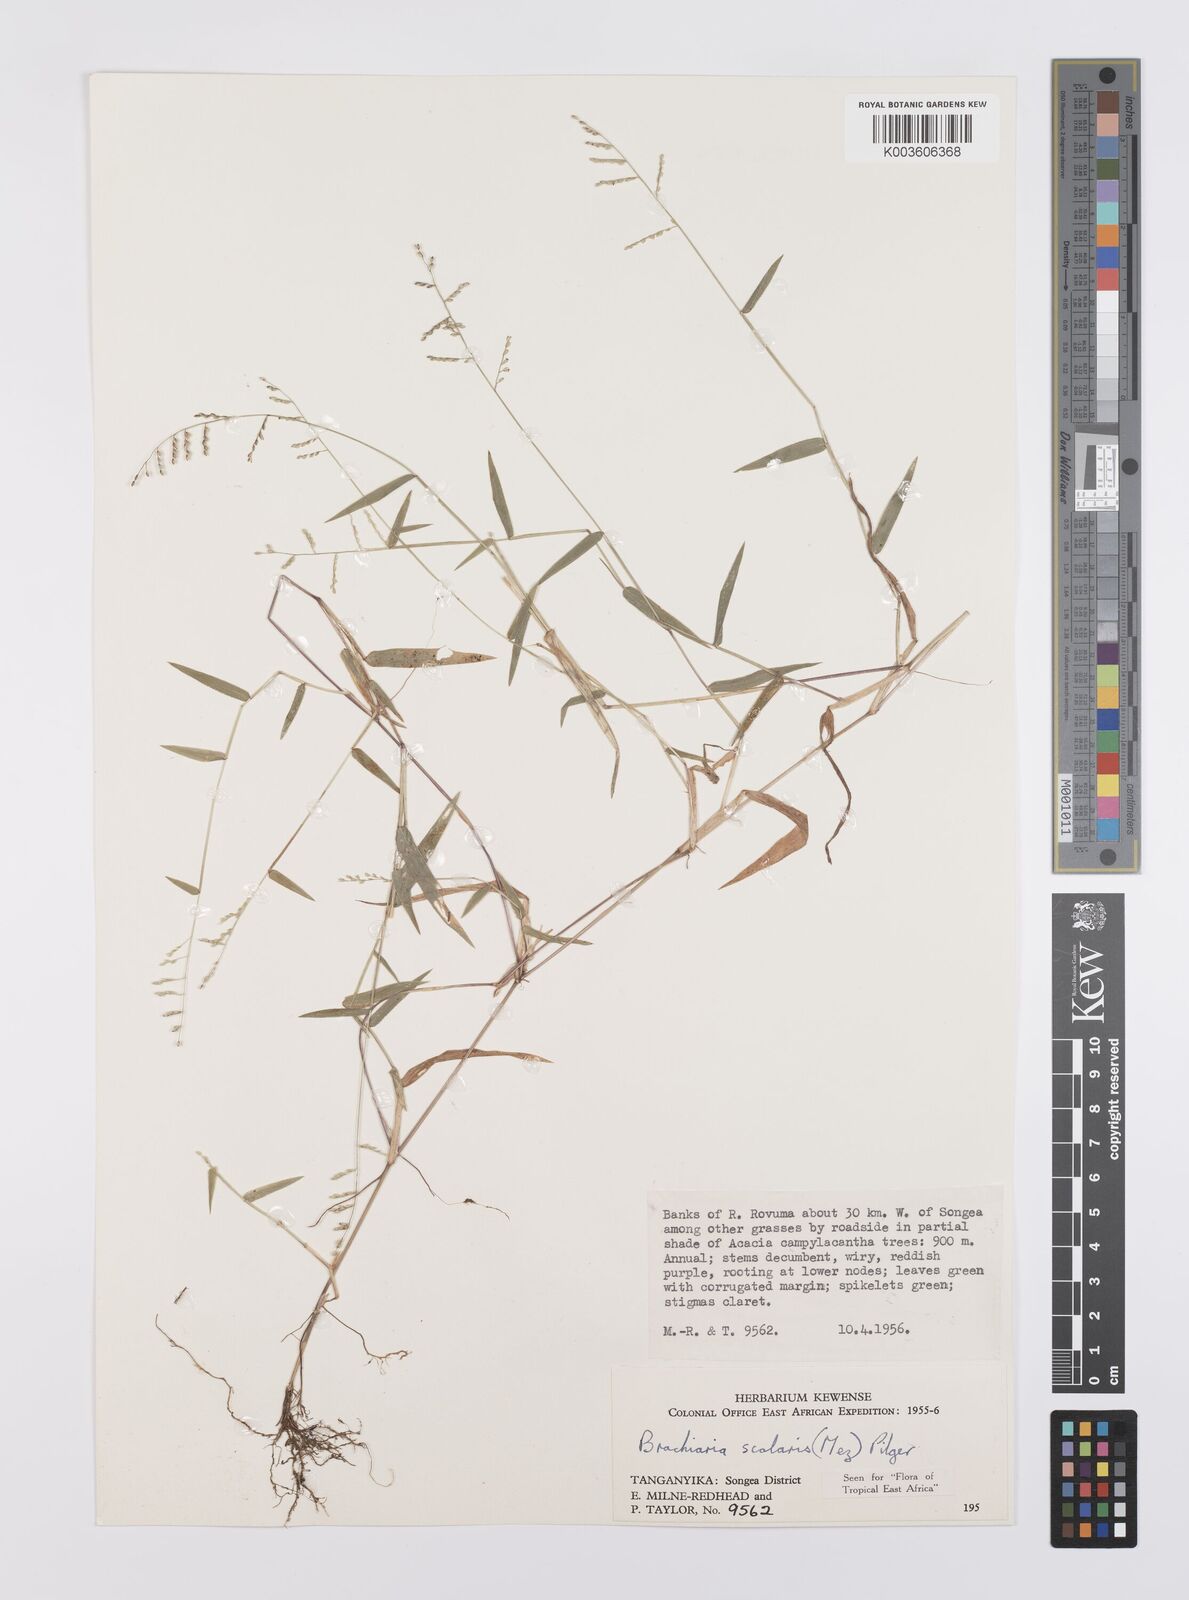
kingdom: Plantae
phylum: Tracheophyta
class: Liliopsida
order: Poales
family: Poaceae
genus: Urochloa
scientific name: Urochloa comata
